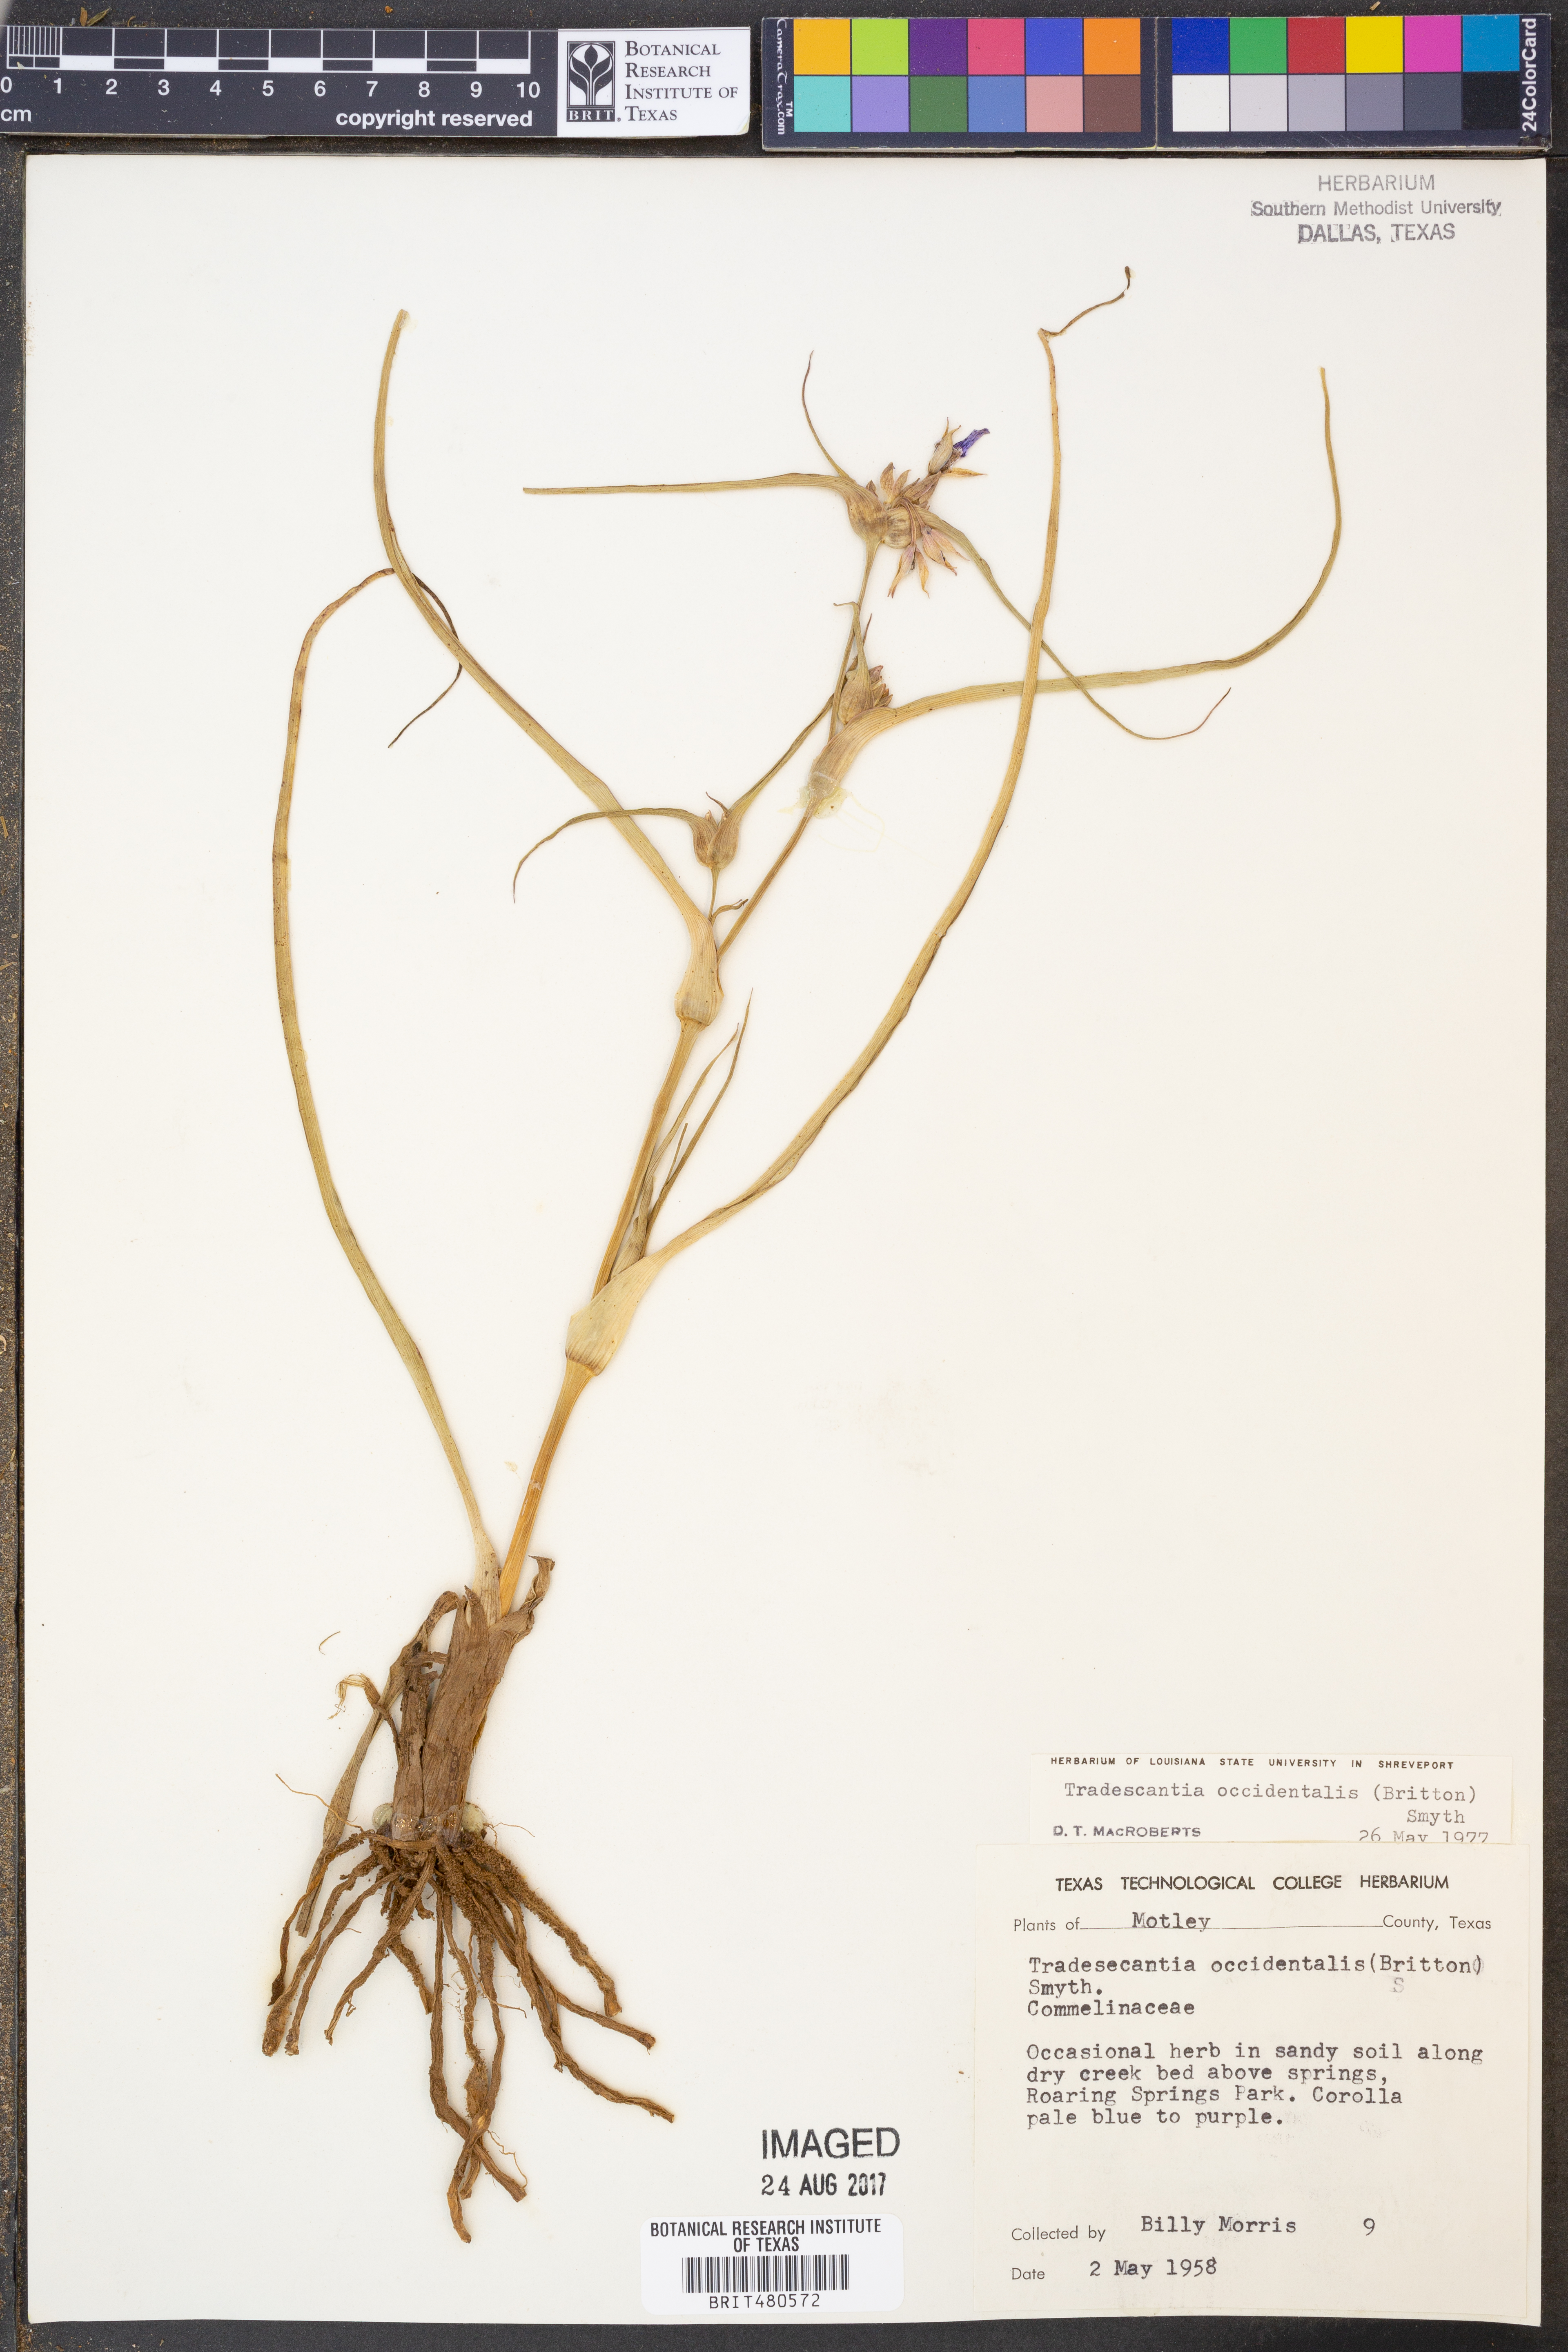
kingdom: Plantae
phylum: Tracheophyta
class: Liliopsida
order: Commelinales
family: Commelinaceae
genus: Tradescantia
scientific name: Tradescantia occidentalis
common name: Prairie spiderwort
